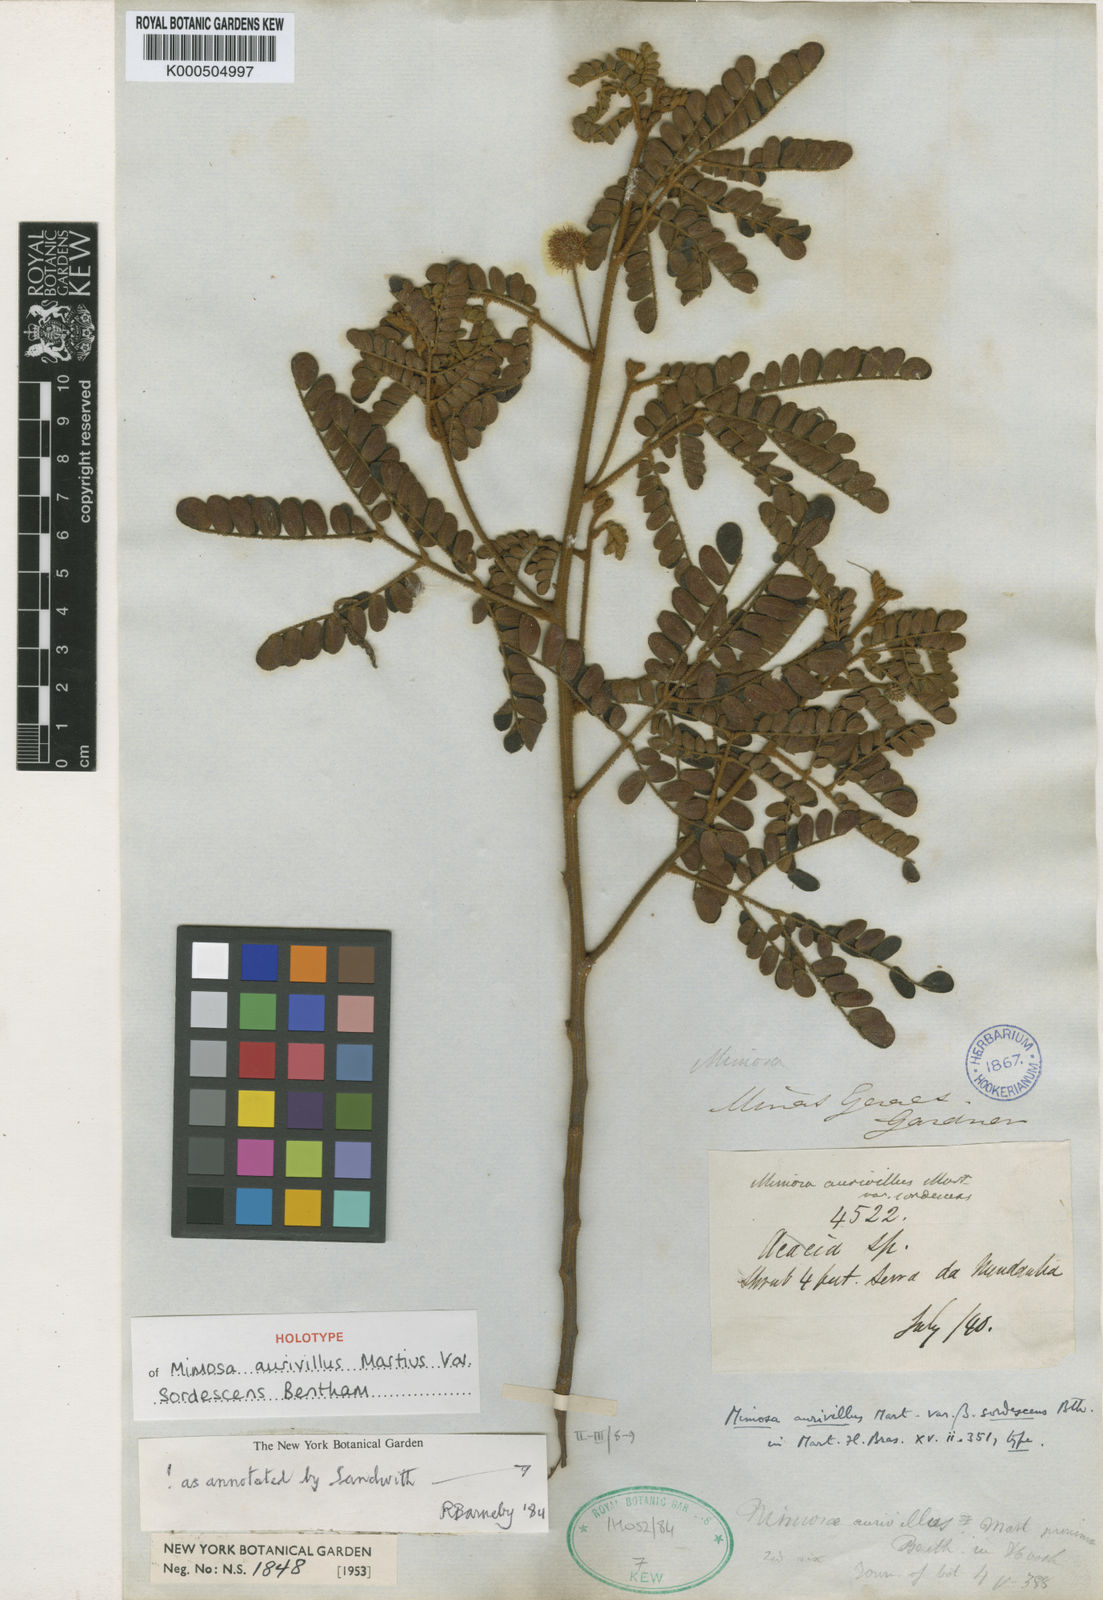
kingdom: Plantae
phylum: Tracheophyta
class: Magnoliopsida
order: Fabales
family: Fabaceae
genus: Mimosa
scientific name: Mimosa aurivillus
